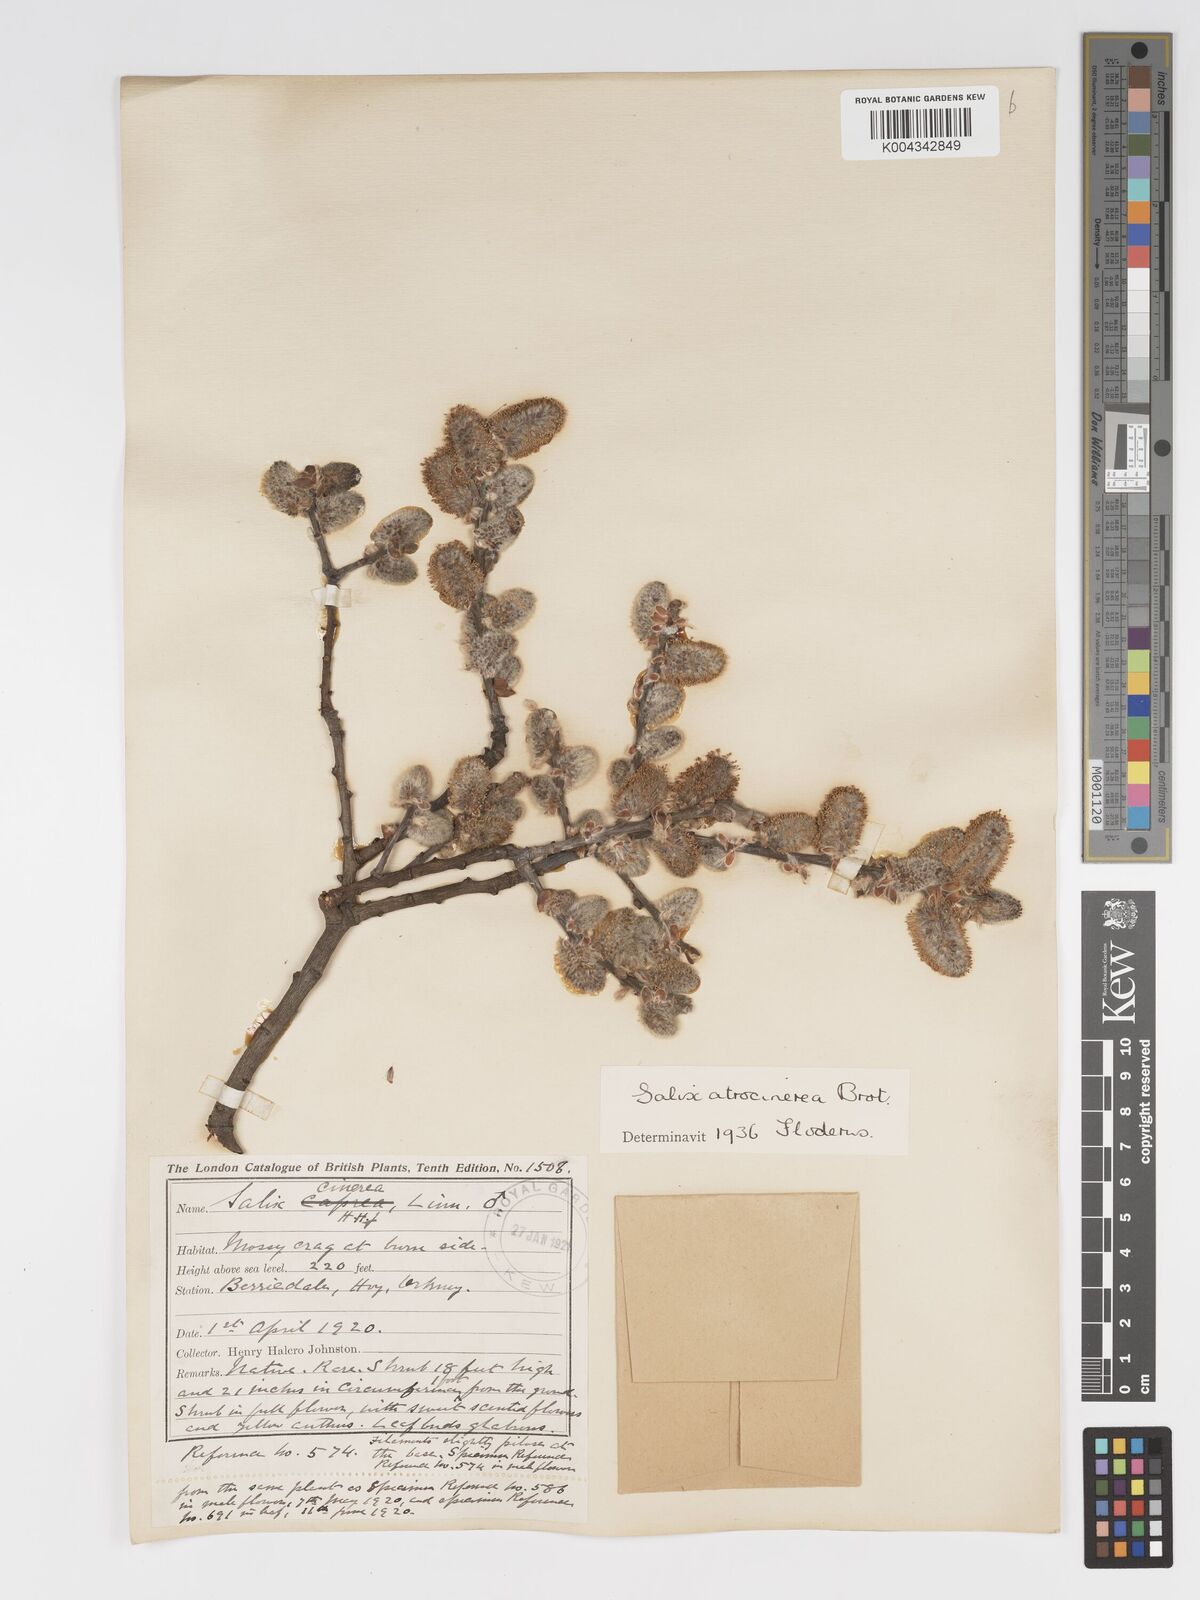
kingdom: Plantae
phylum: Tracheophyta
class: Magnoliopsida
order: Malpighiales
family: Salicaceae
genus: Salix
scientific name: Salix atrocinerea
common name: Rusty willow
